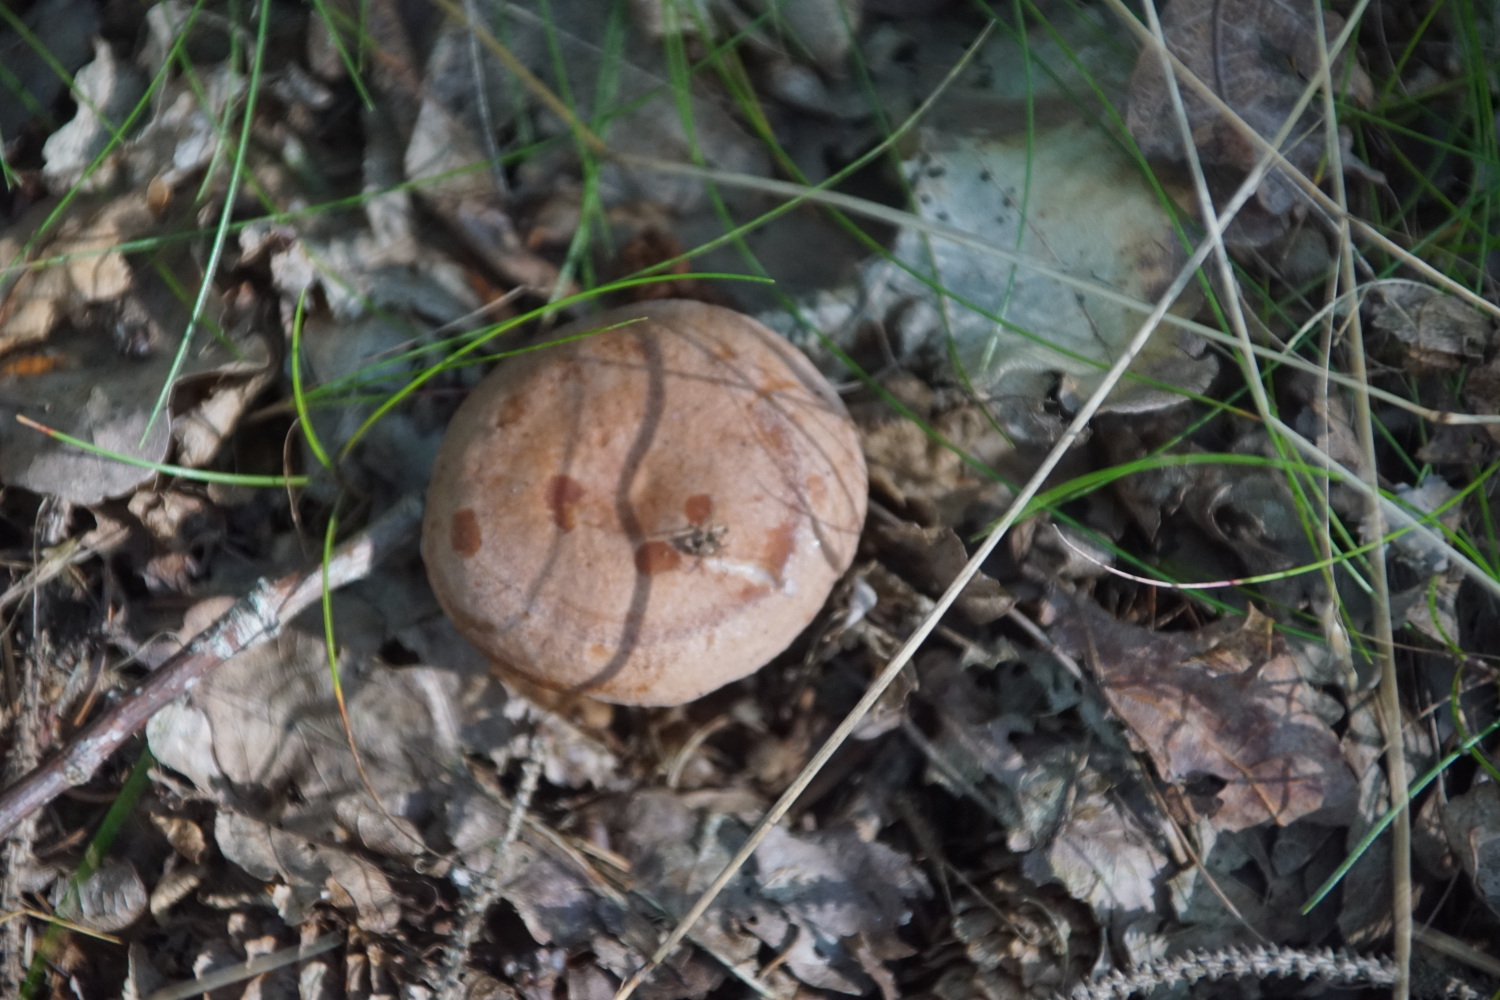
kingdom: Fungi
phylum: Basidiomycota
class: Agaricomycetes
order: Russulales
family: Russulaceae
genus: Lactarius
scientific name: Lactarius quietus
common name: ege-mælkehat
